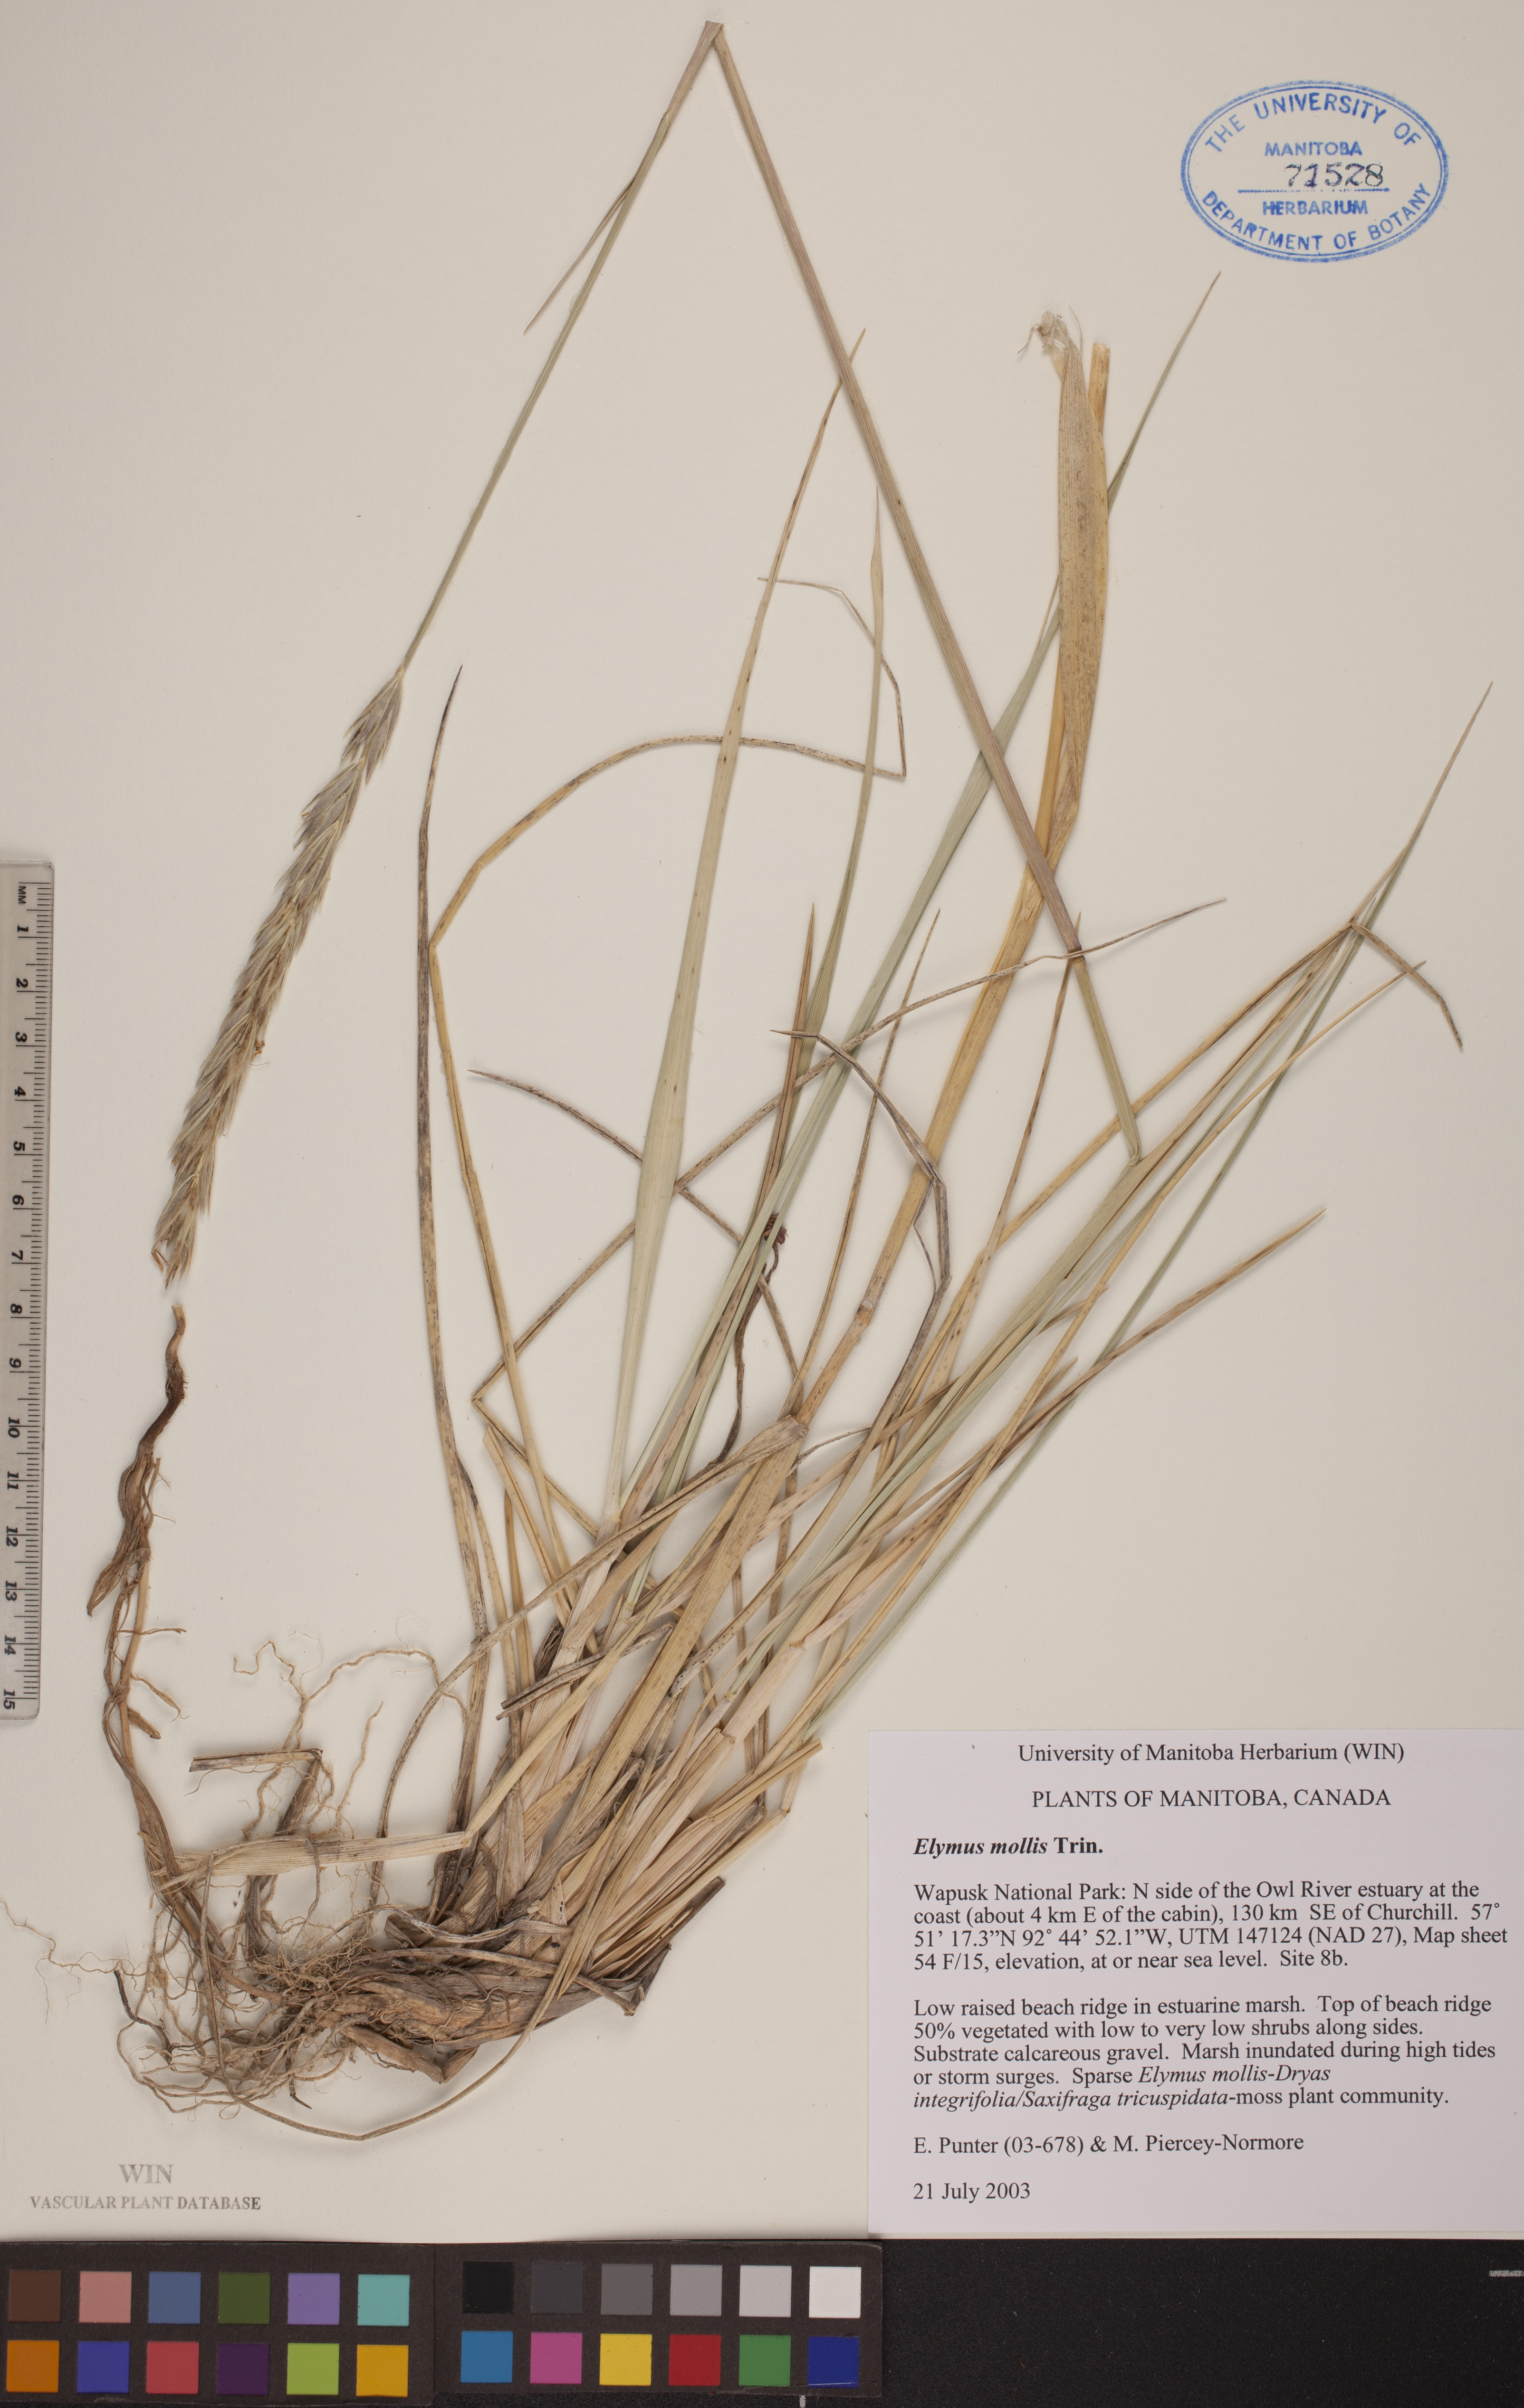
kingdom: Plantae
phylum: Tracheophyta
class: Liliopsida
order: Poales
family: Poaceae
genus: Leymus
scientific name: Leymus mollis
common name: American dune grass
